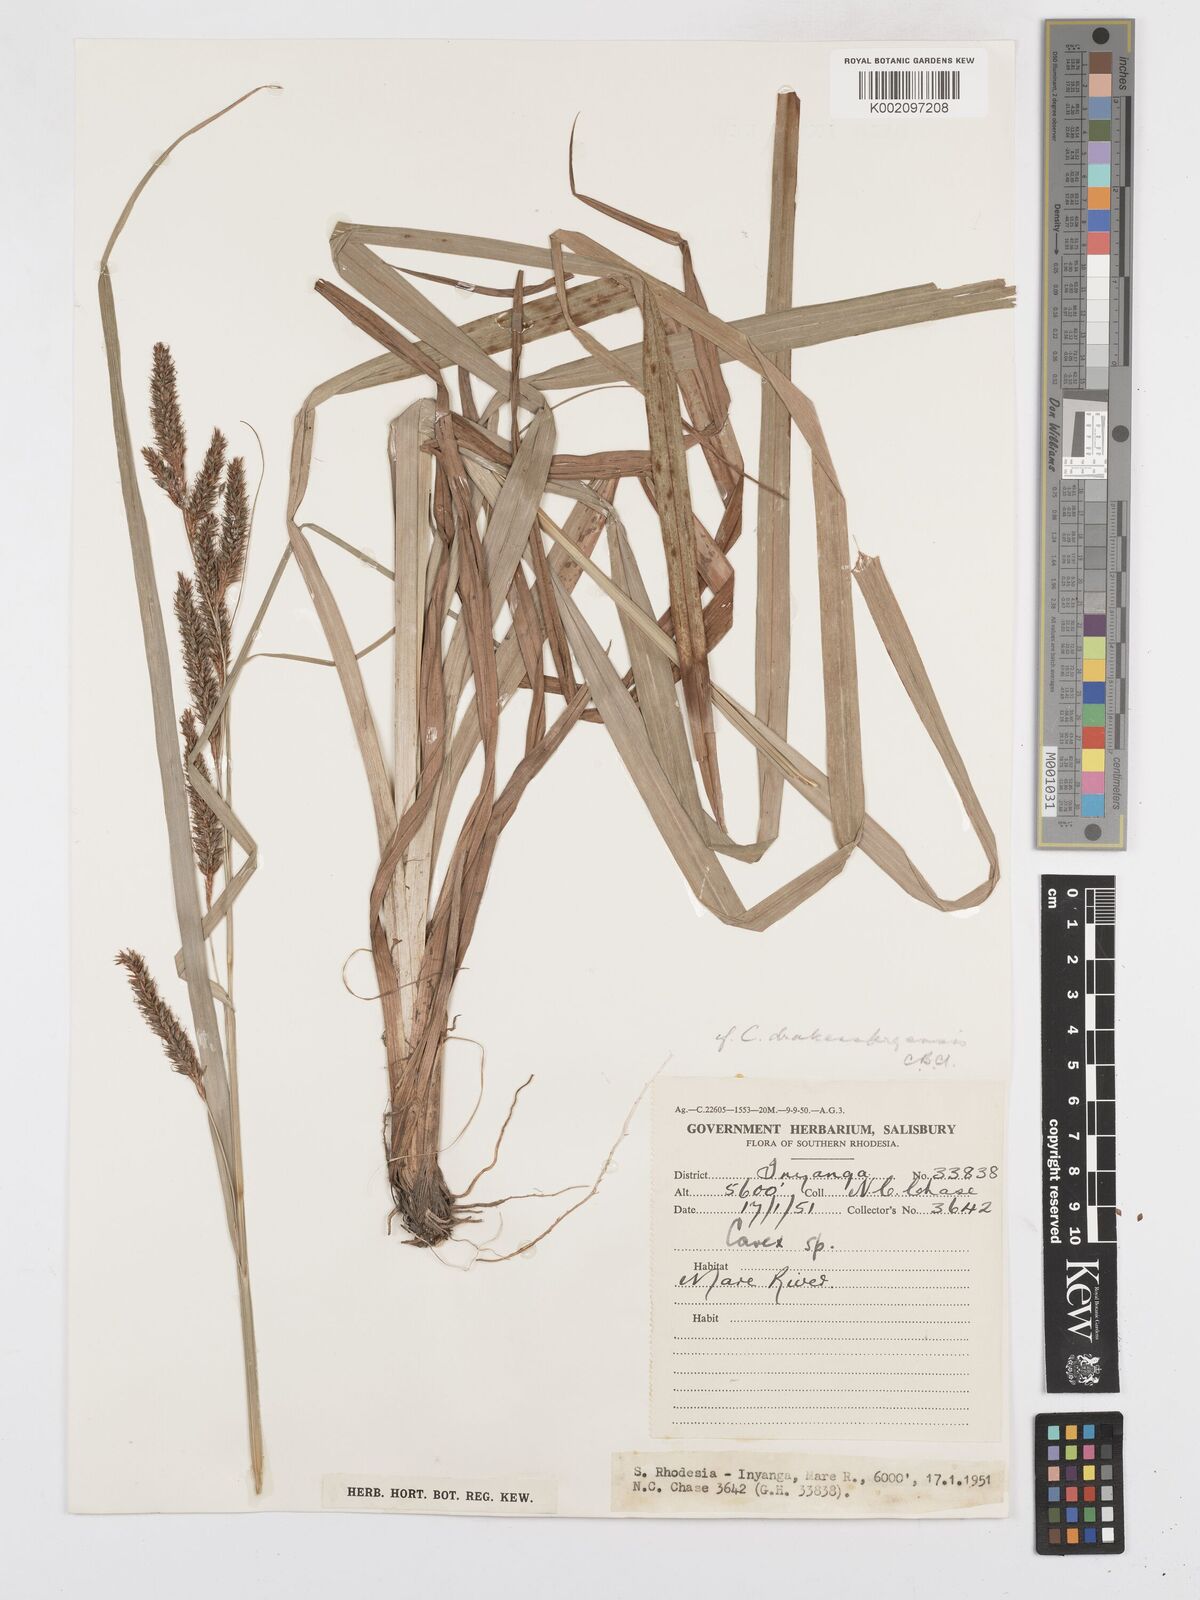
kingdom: Plantae
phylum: Tracheophyta
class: Liliopsida
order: Poales
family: Cyperaceae
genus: Carex
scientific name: Carex
